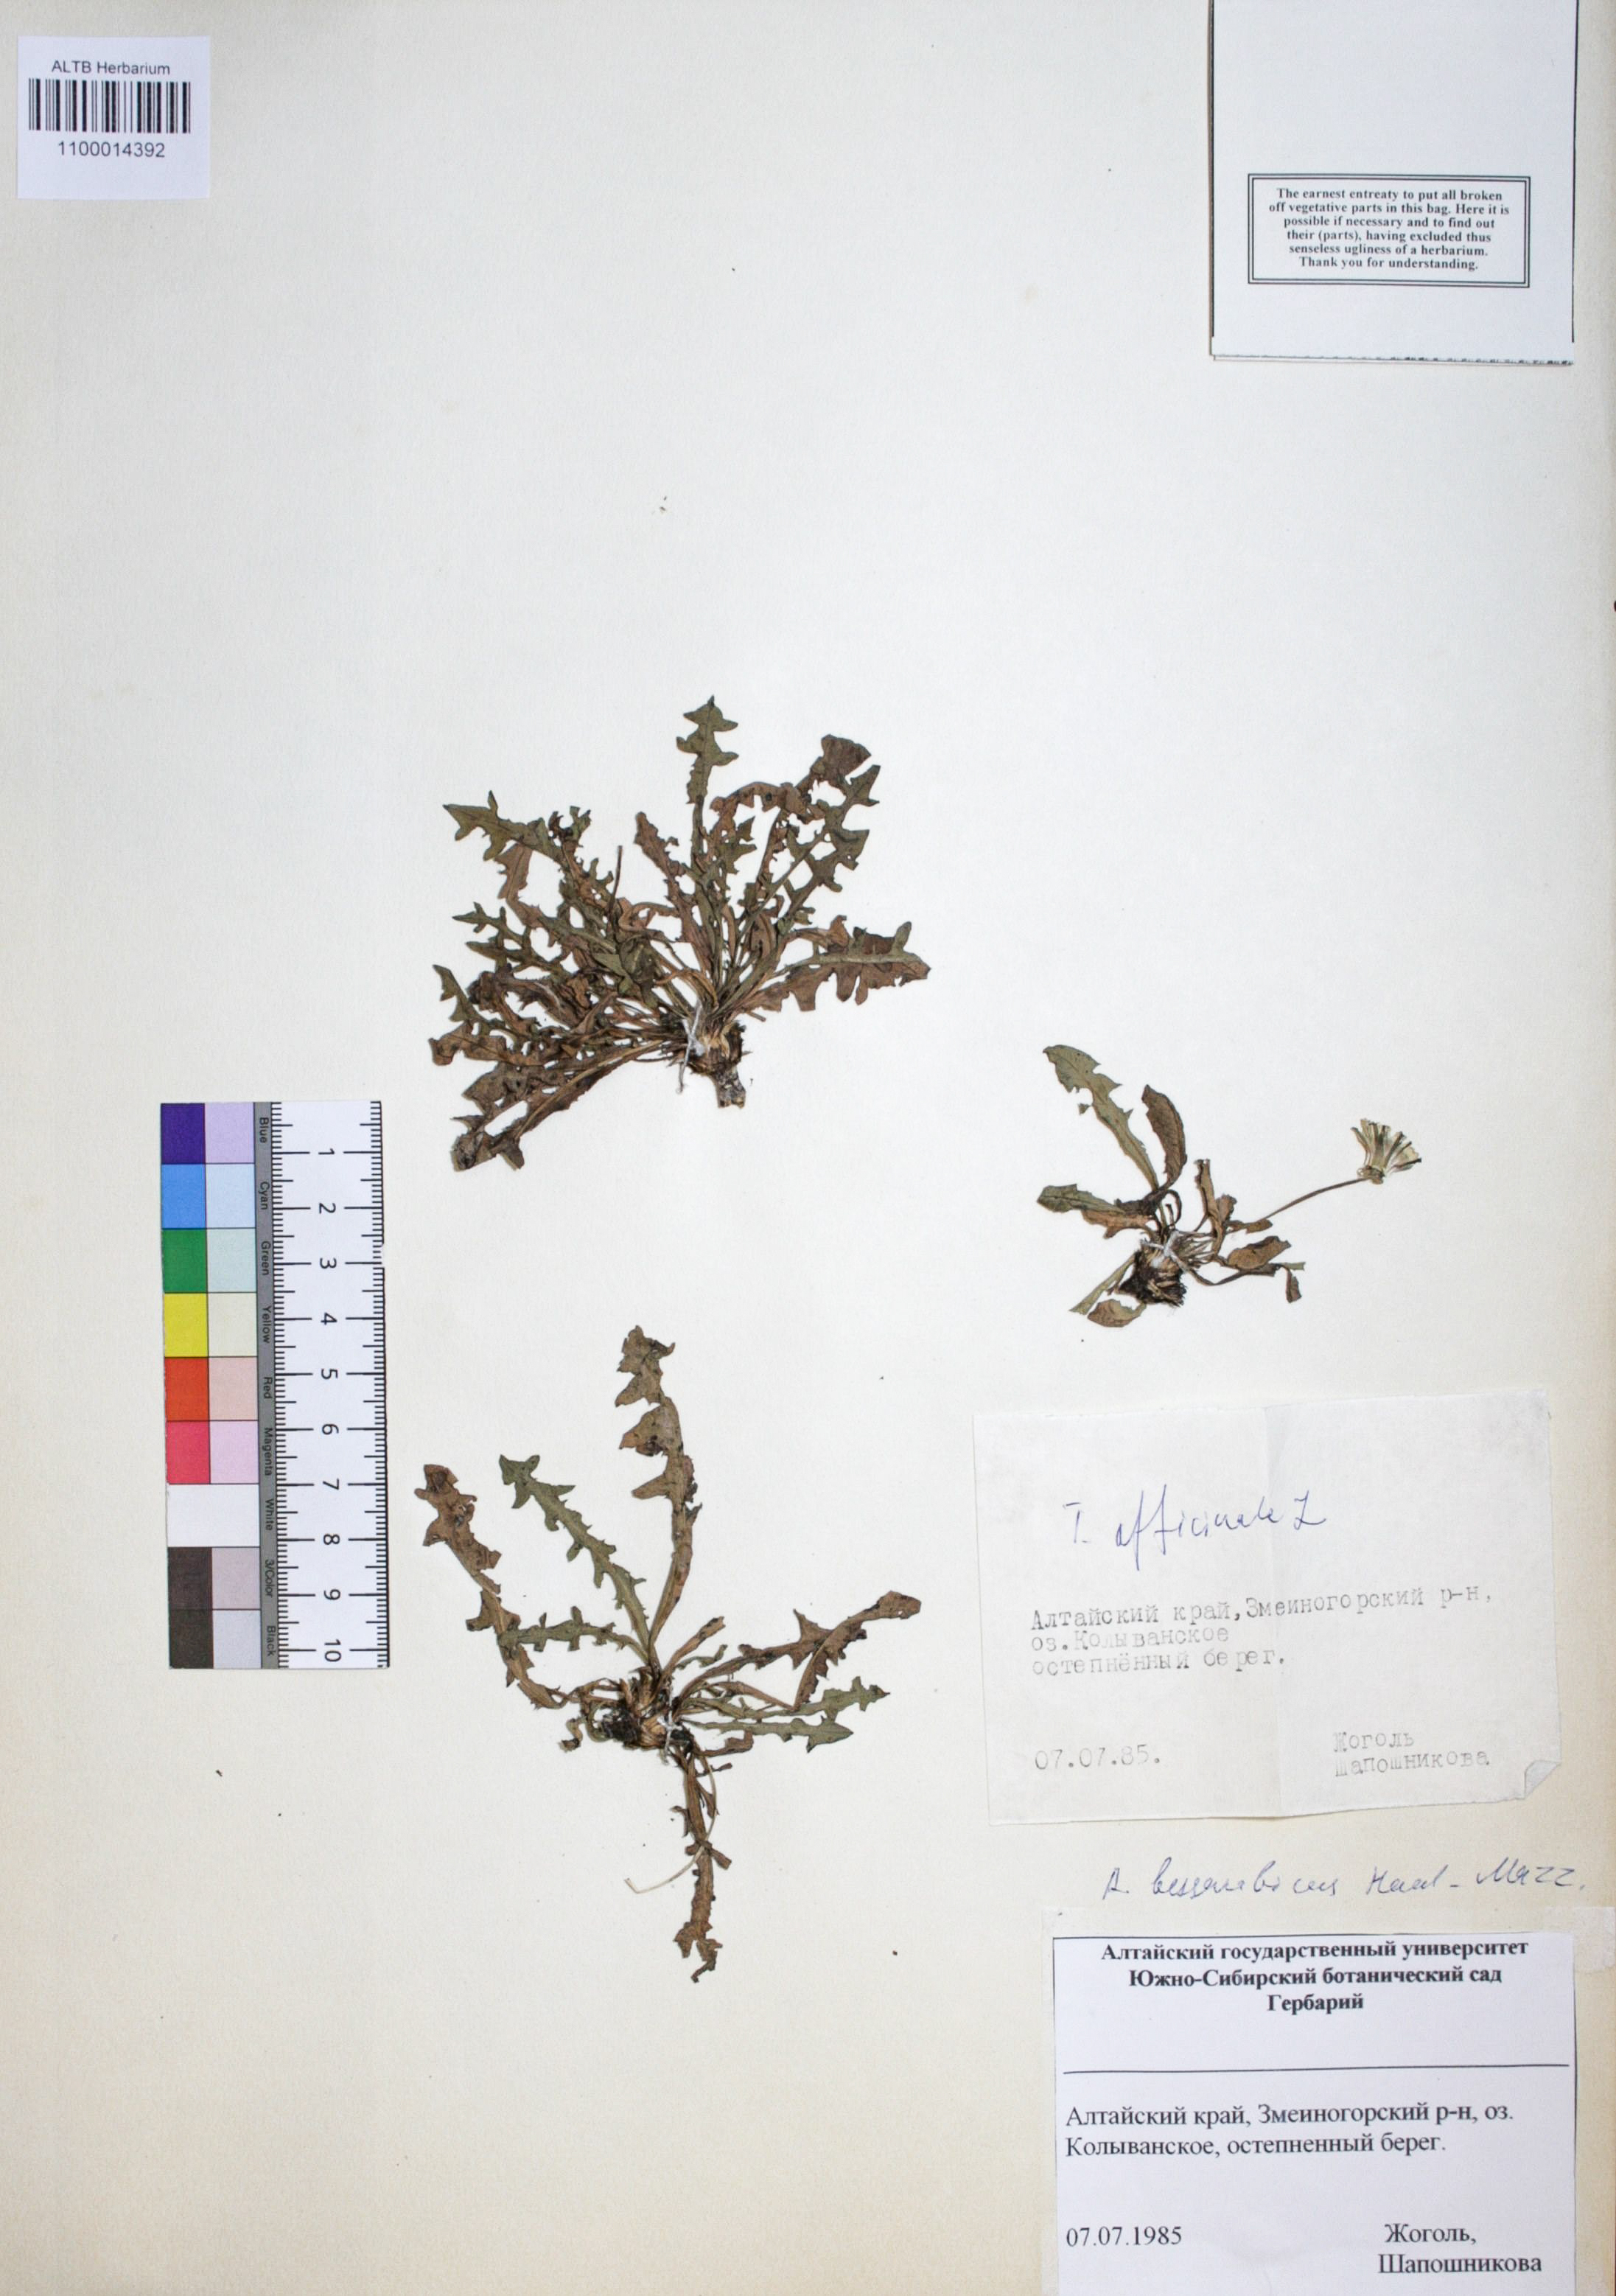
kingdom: Plantae
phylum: Tracheophyta
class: Magnoliopsida
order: Asterales
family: Asteraceae
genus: Taraxacum
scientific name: Taraxacum officinale
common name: Common dandelion
